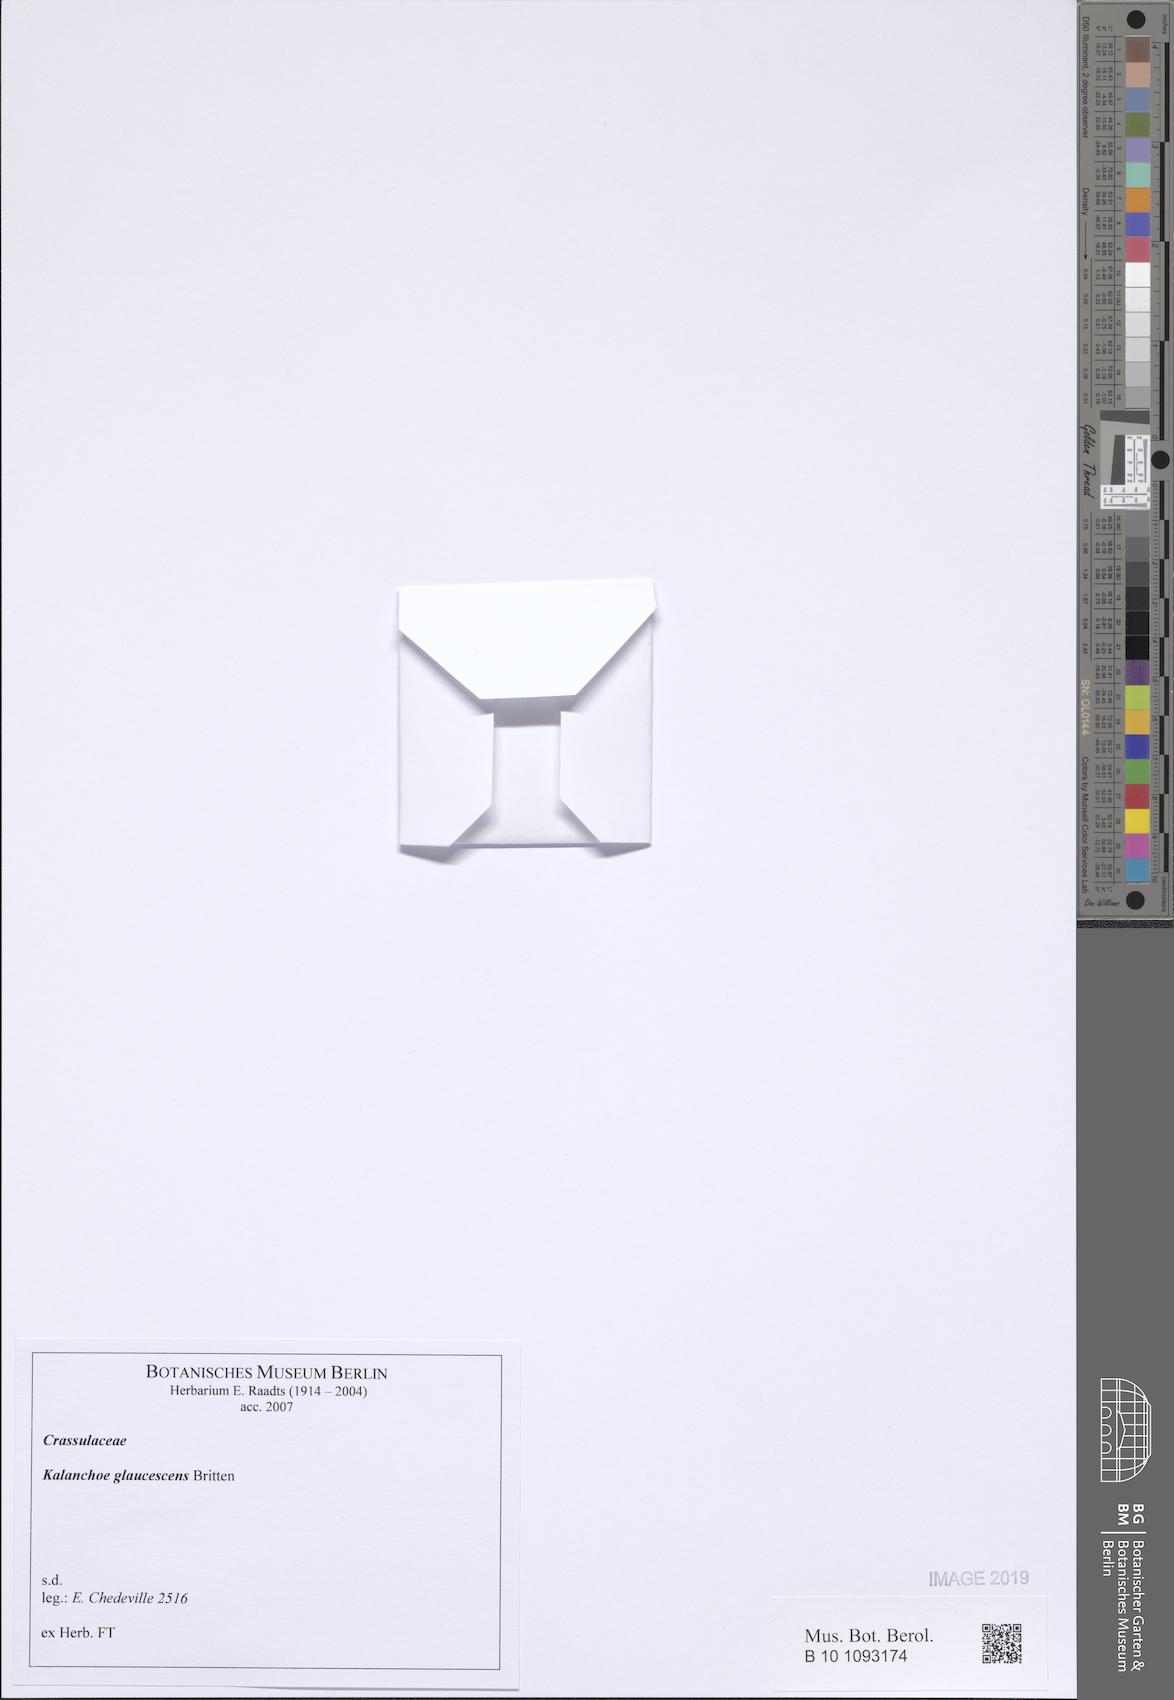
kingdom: Plantae
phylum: Tracheophyta
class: Magnoliopsida
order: Saxifragales
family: Crassulaceae
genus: Kalanchoe
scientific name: Kalanchoe glaucescens
